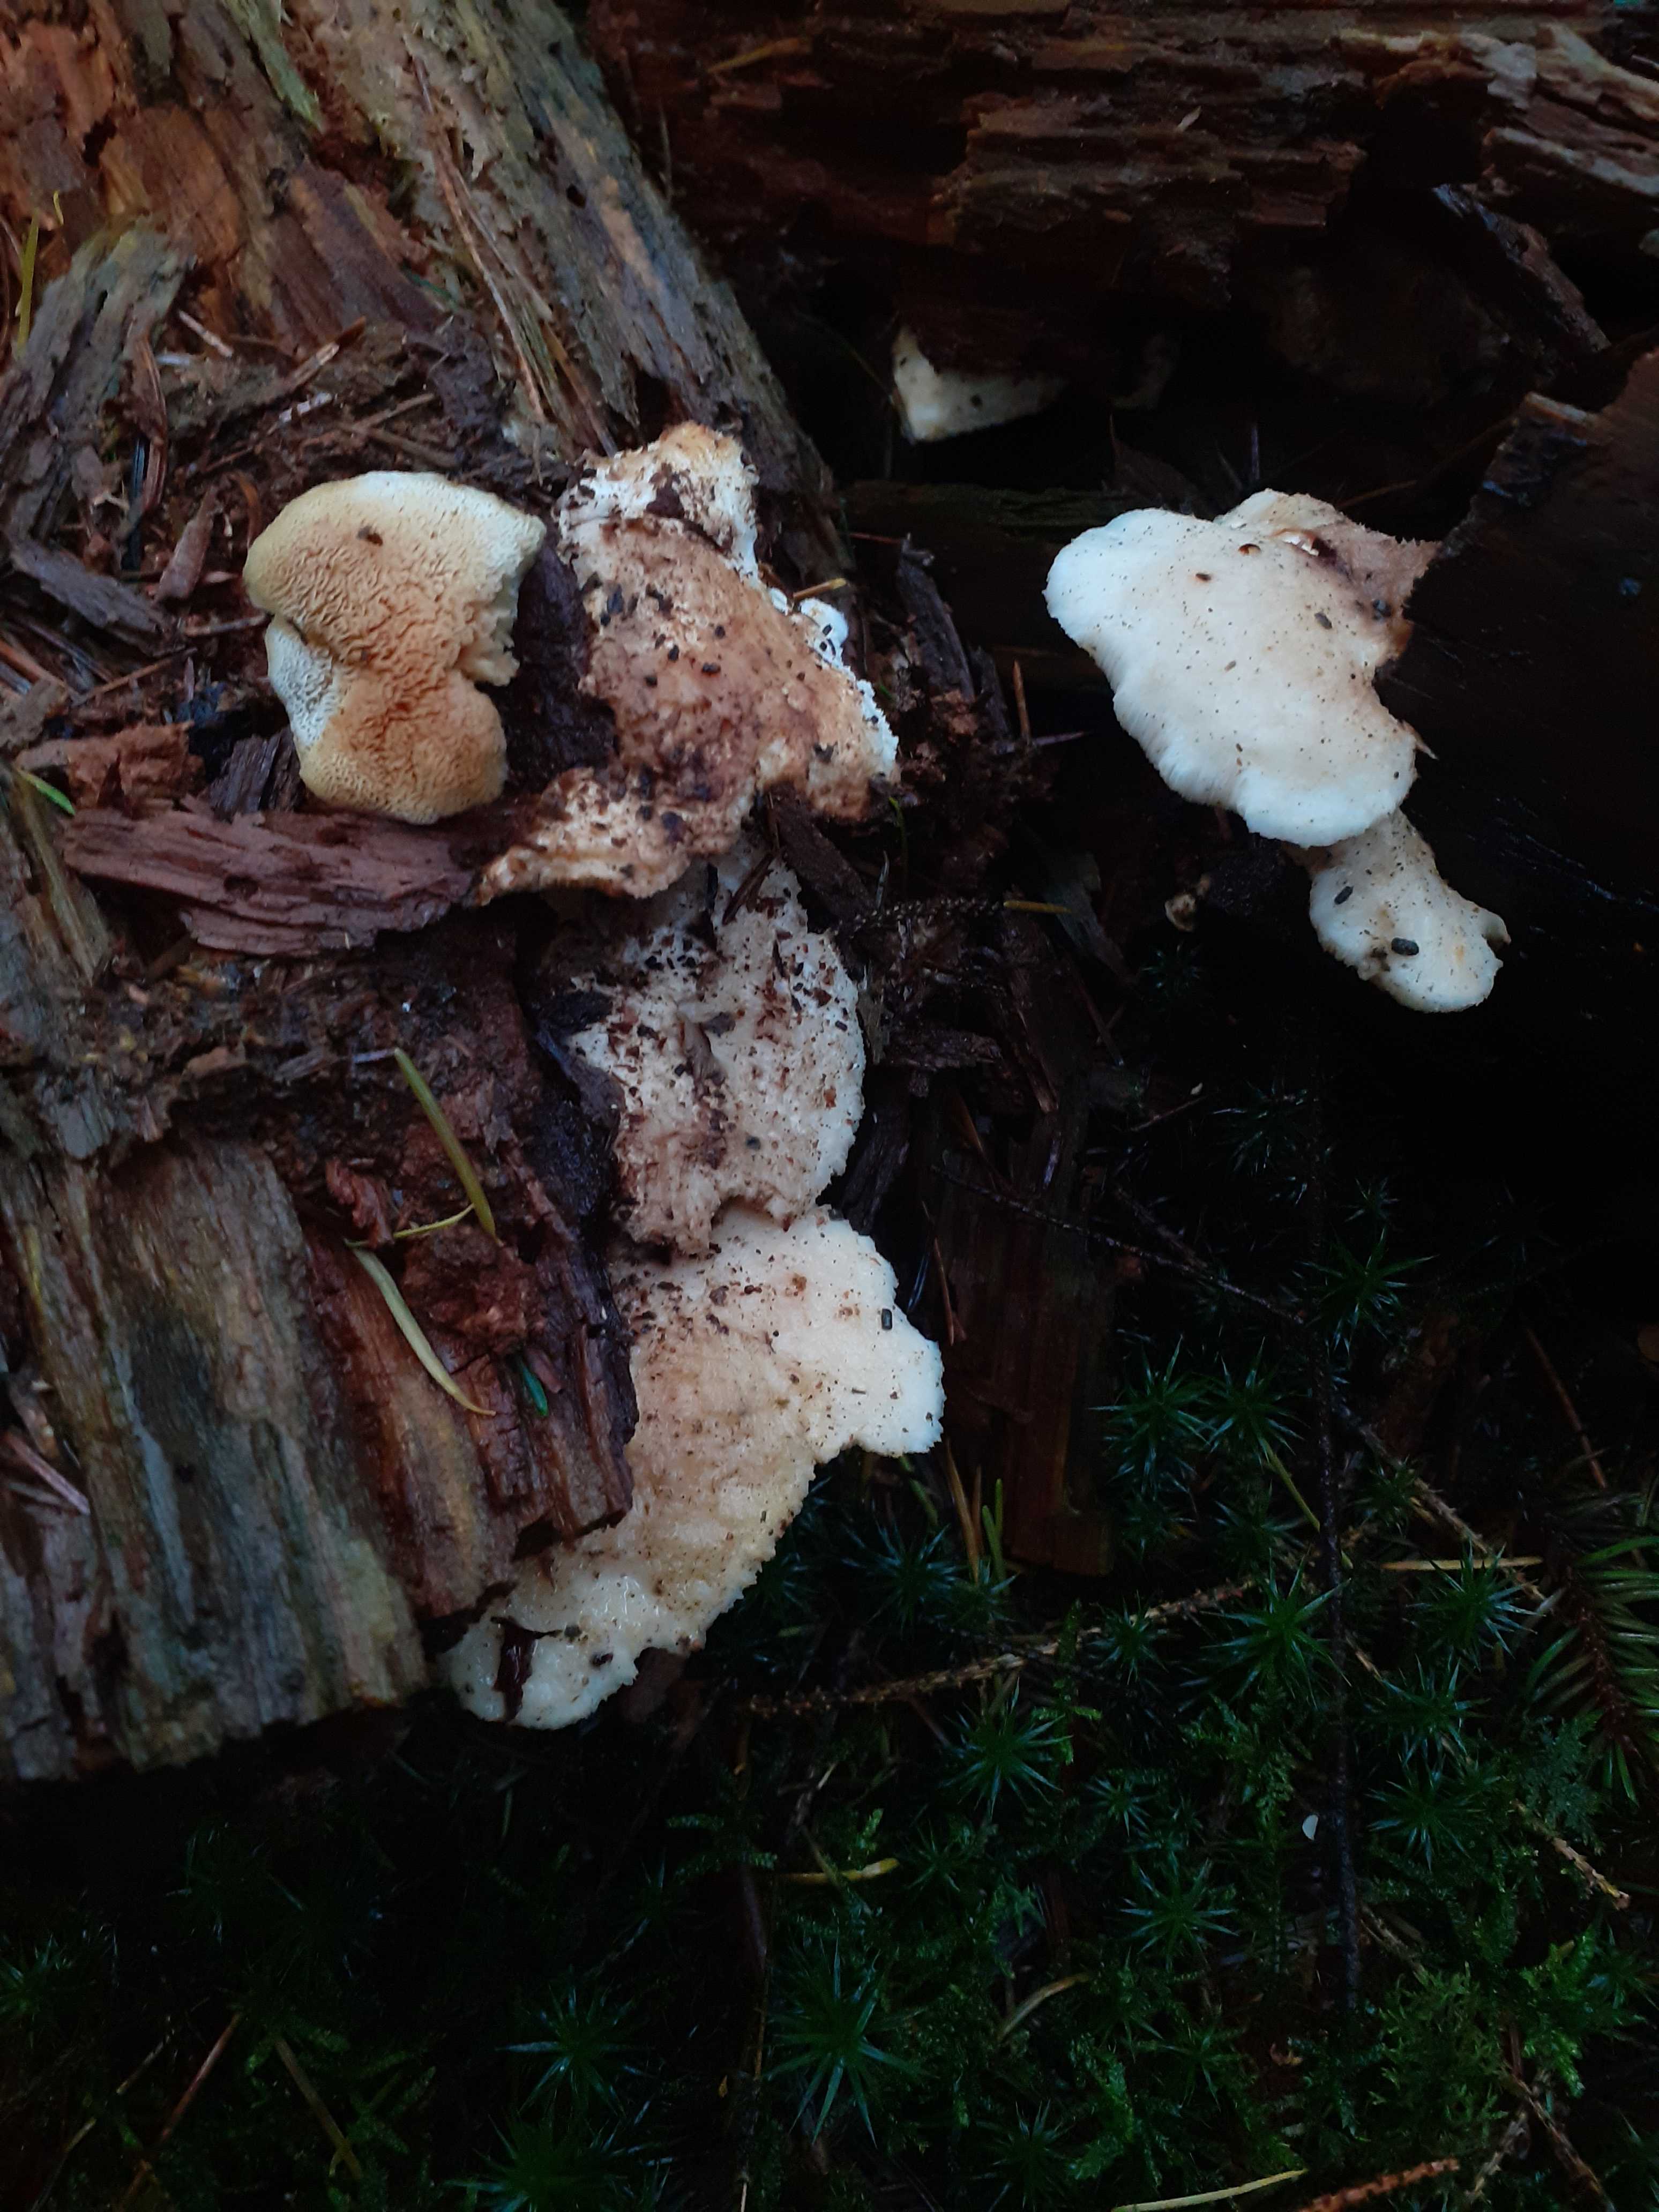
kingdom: Fungi
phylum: Basidiomycota
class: Agaricomycetes
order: Polyporales
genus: Fuscopostia
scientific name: Fuscopostia fragilis
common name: brunende kødporesvamp
